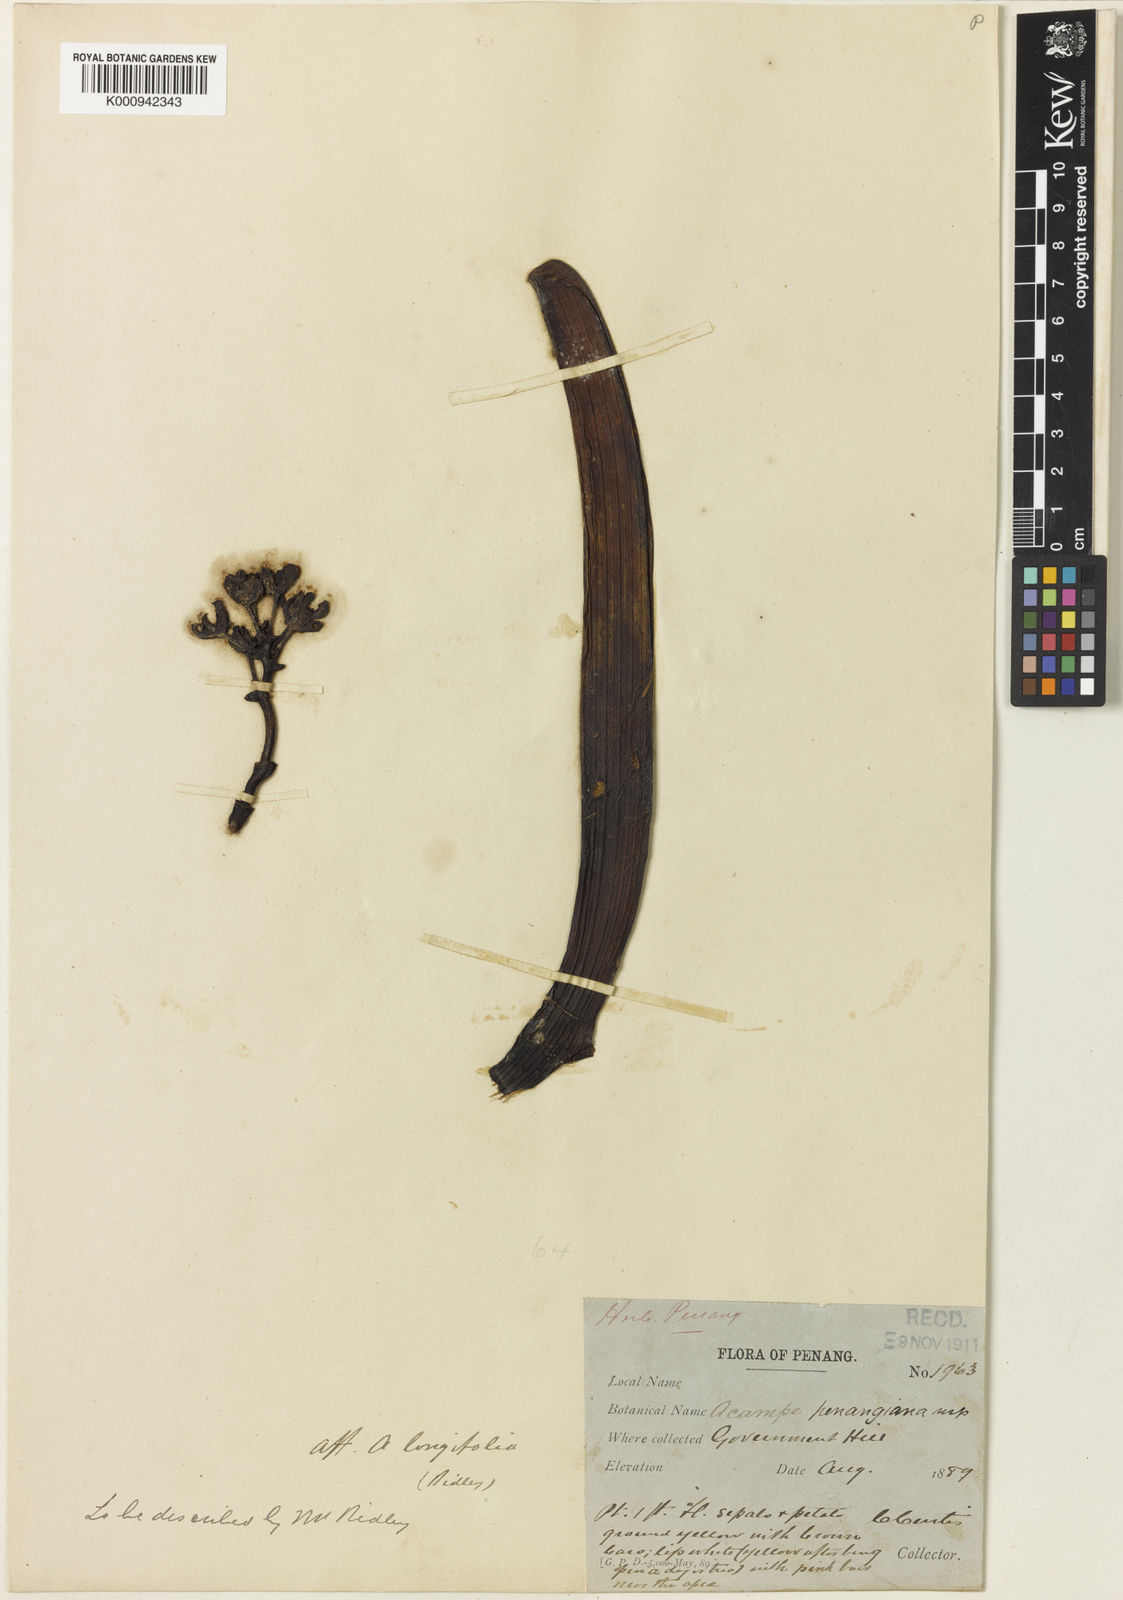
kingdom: Plantae
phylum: Tracheophyta
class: Liliopsida
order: Asparagales
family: Orchidaceae
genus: Acampe
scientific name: Acampe praemorsa
